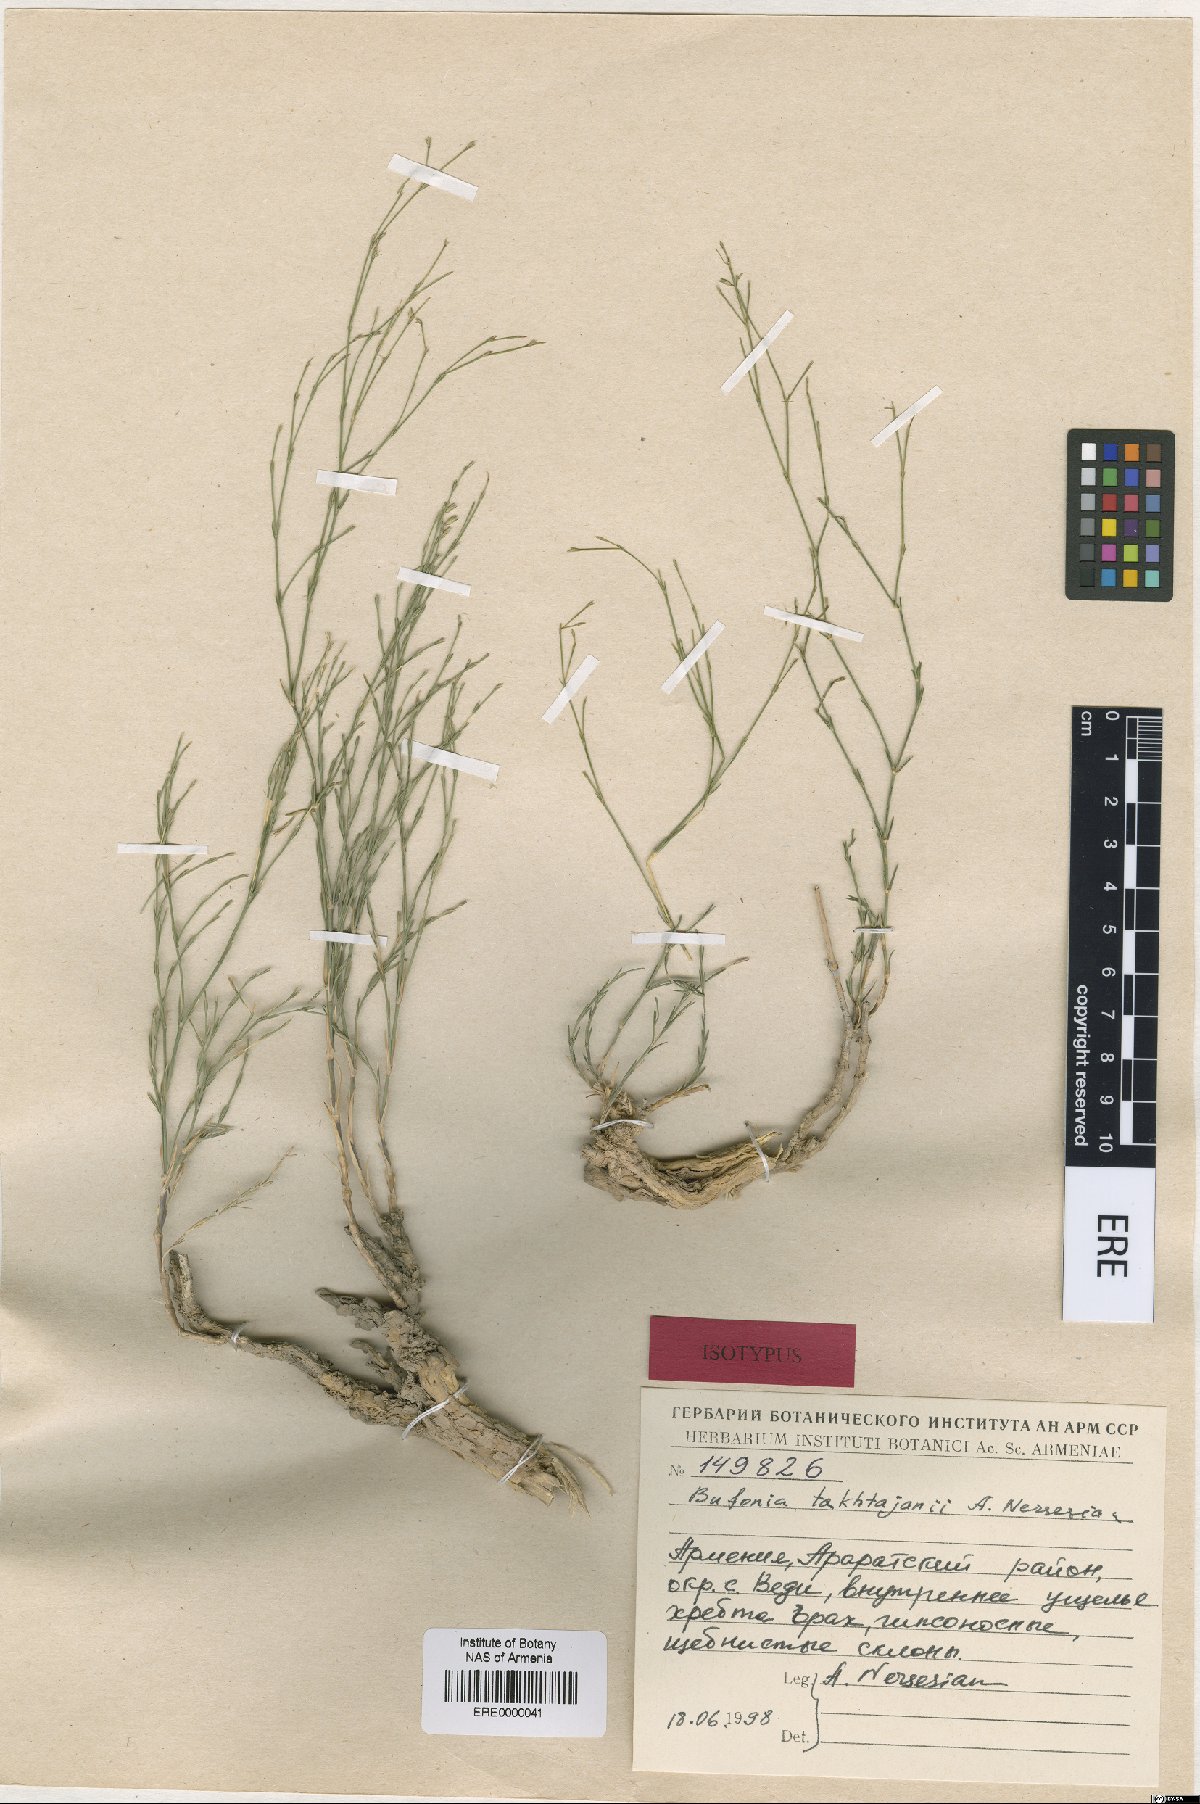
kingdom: Plantae
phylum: Tracheophyta
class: Magnoliopsida
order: Caryophyllales
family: Caryophyllaceae
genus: Bufonia
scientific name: Bufonia takhtajanii
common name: Takhtadjyan's bufonia
